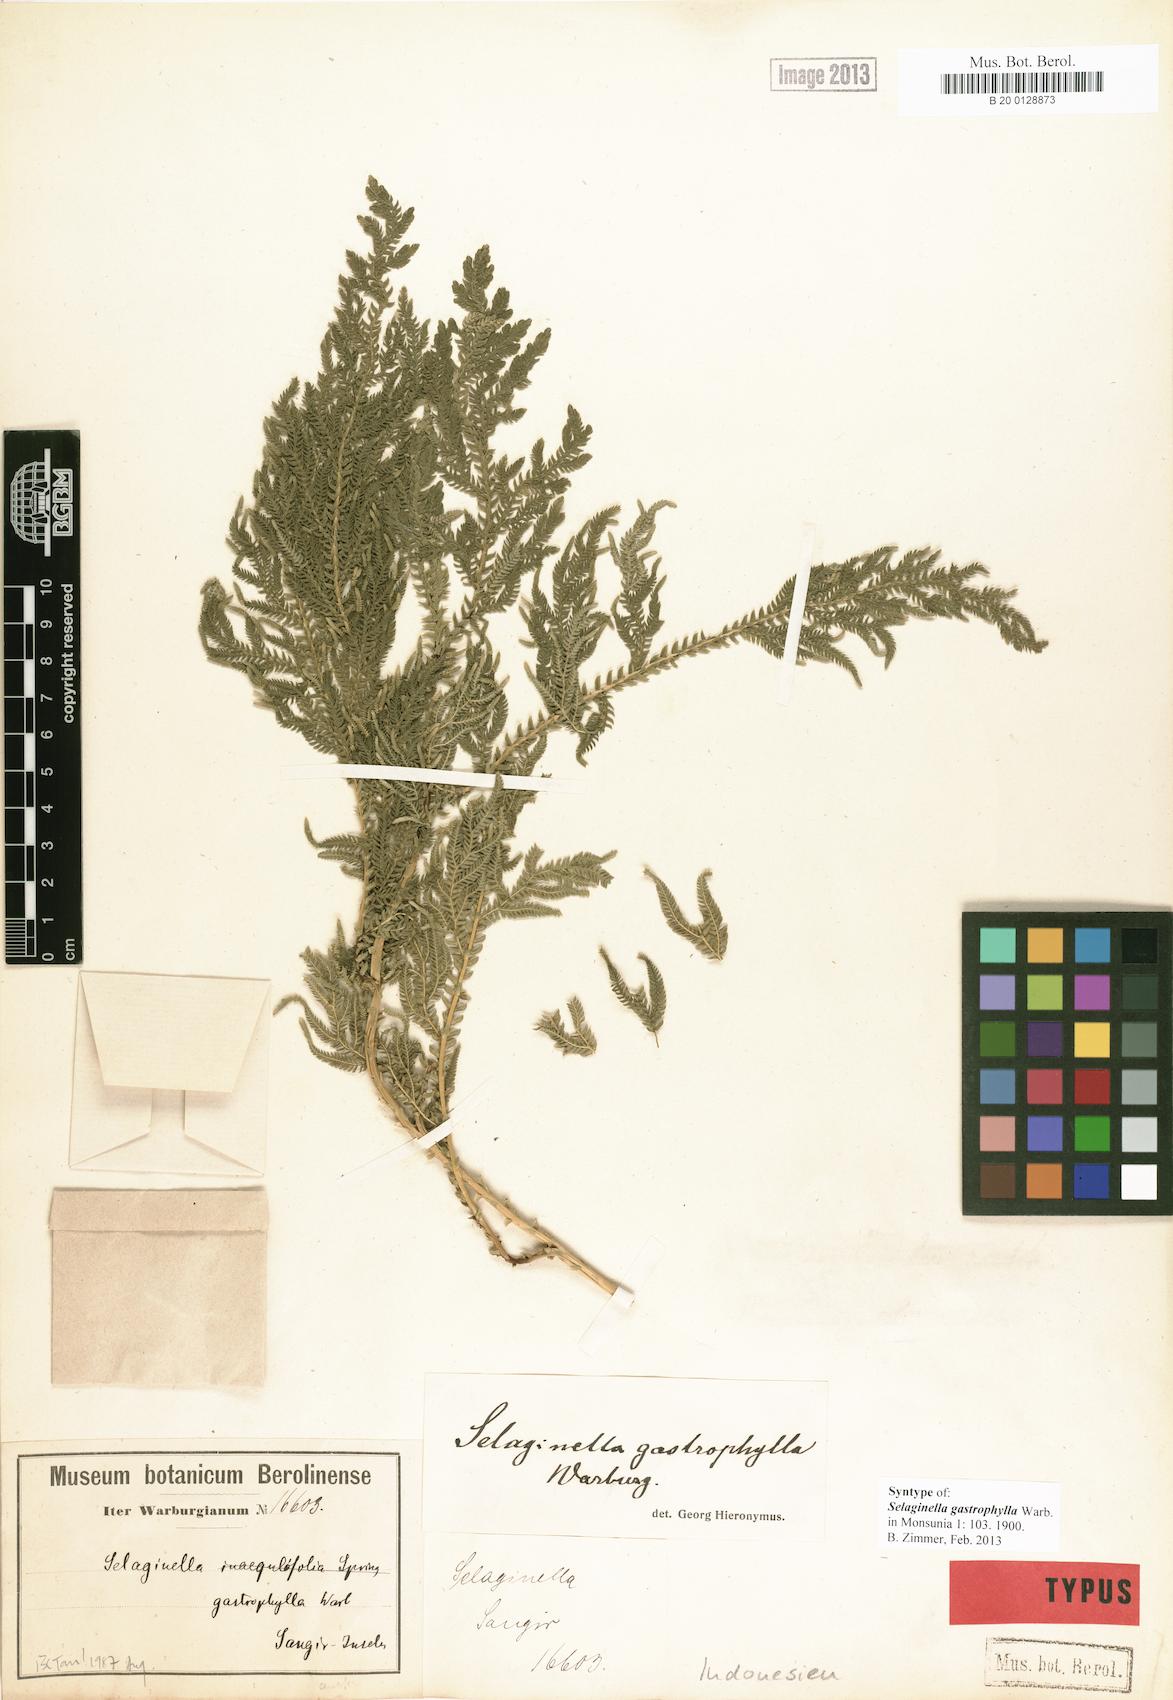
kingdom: Plantae
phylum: Tracheophyta
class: Lycopodiopsida
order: Selaginellales
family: Selaginellaceae
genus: Selaginella
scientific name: Selaginella gastrophylla
